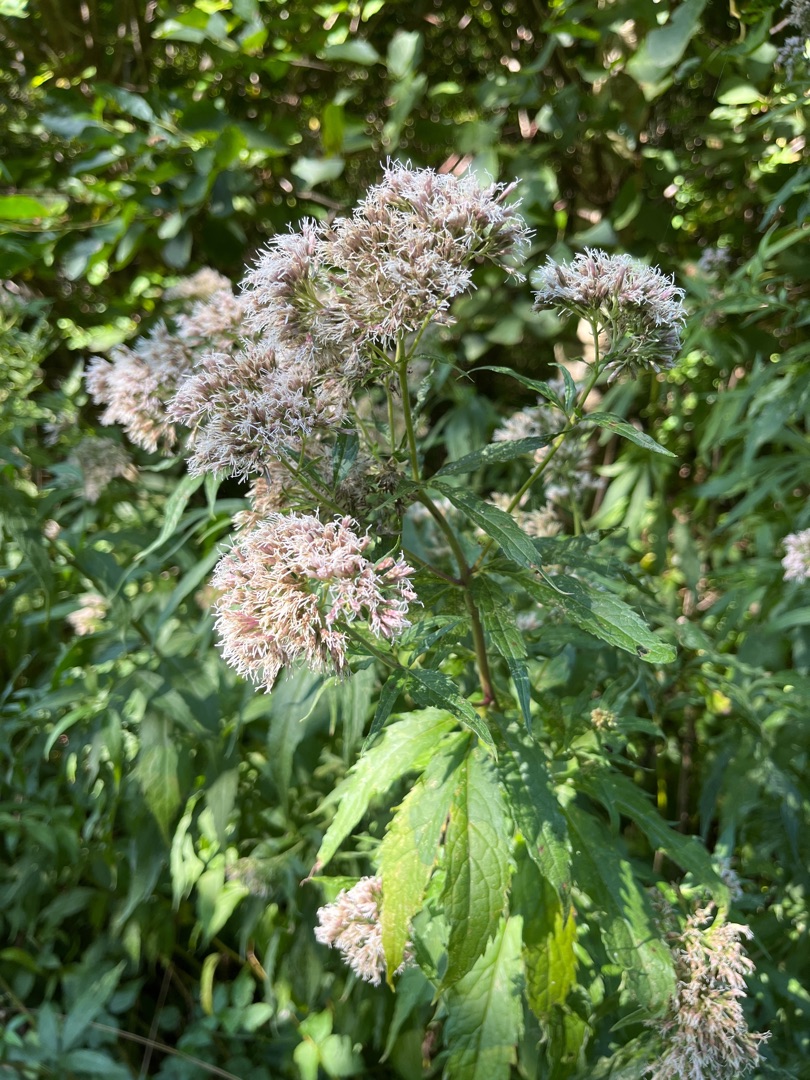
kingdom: Plantae
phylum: Tracheophyta
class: Magnoliopsida
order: Asterales
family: Asteraceae
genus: Eupatorium
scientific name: Eupatorium cannabinum
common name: Hjortetrøst
